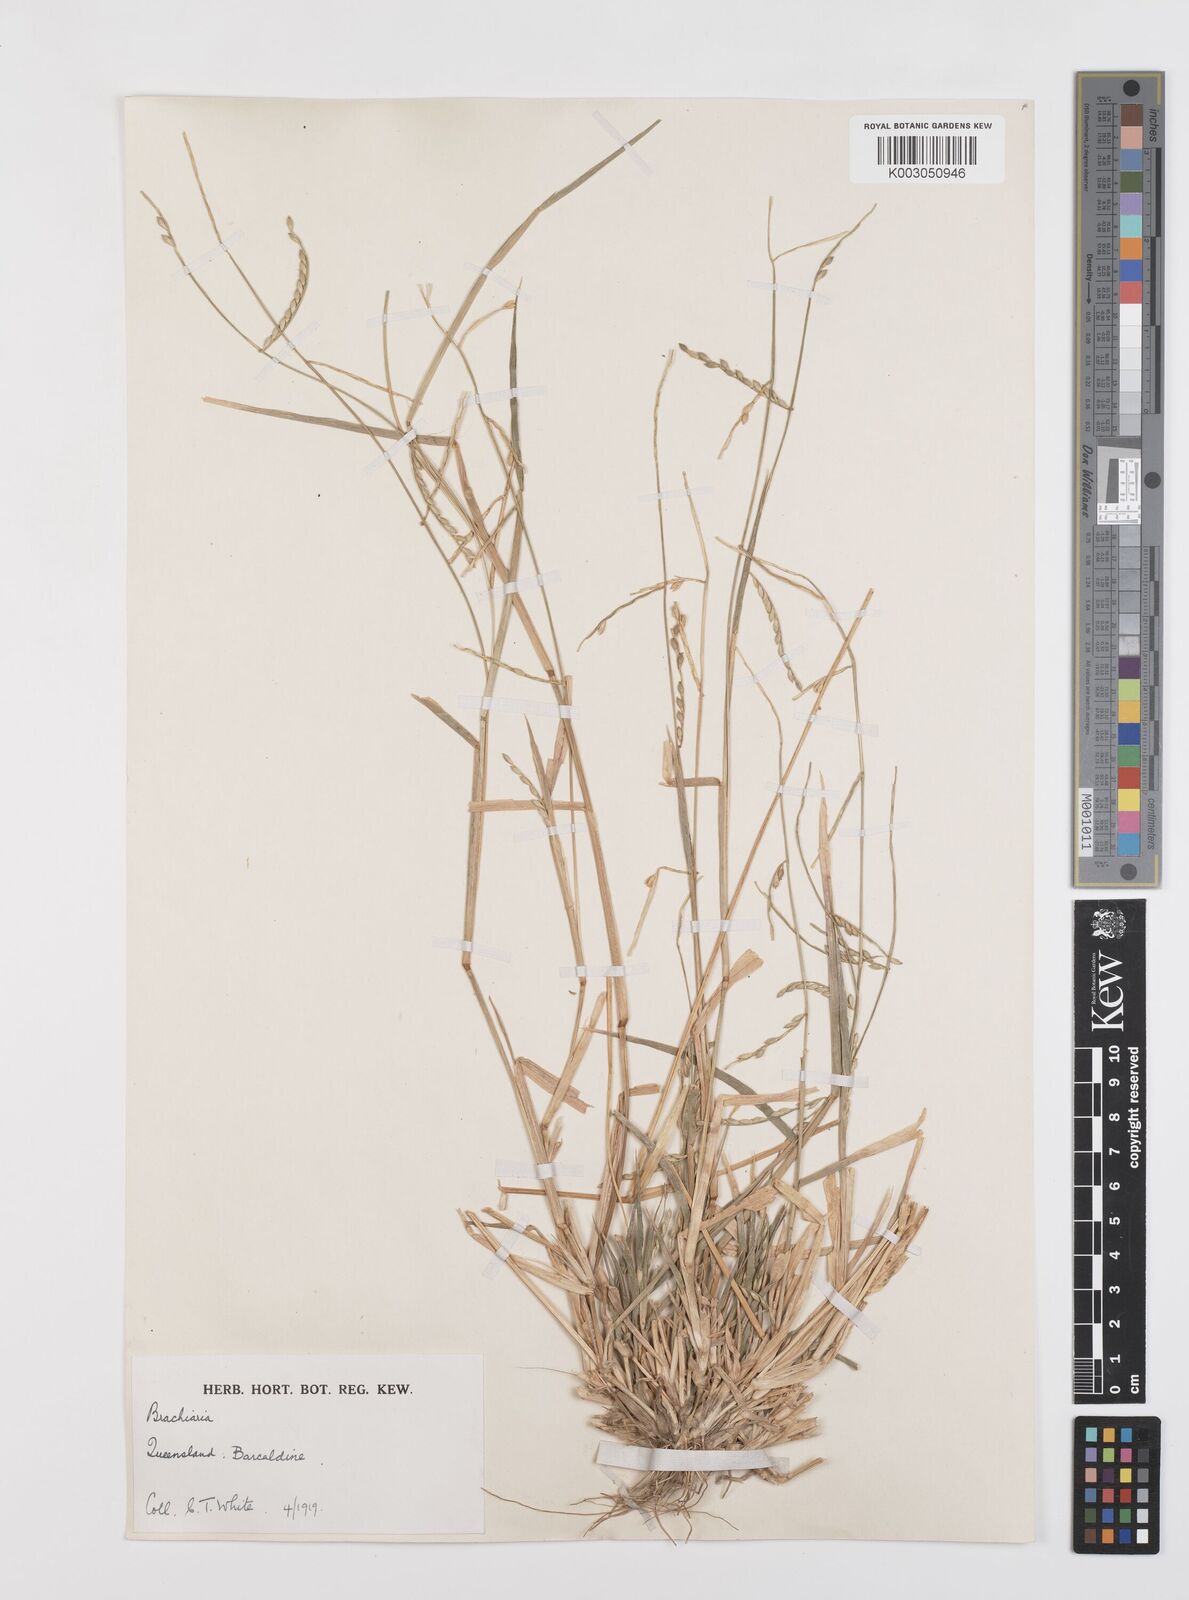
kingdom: Plantae
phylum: Tracheophyta
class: Liliopsida
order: Poales
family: Poaceae
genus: Urochloa
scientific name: Urochloa subquadripara
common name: Armgrass millet
